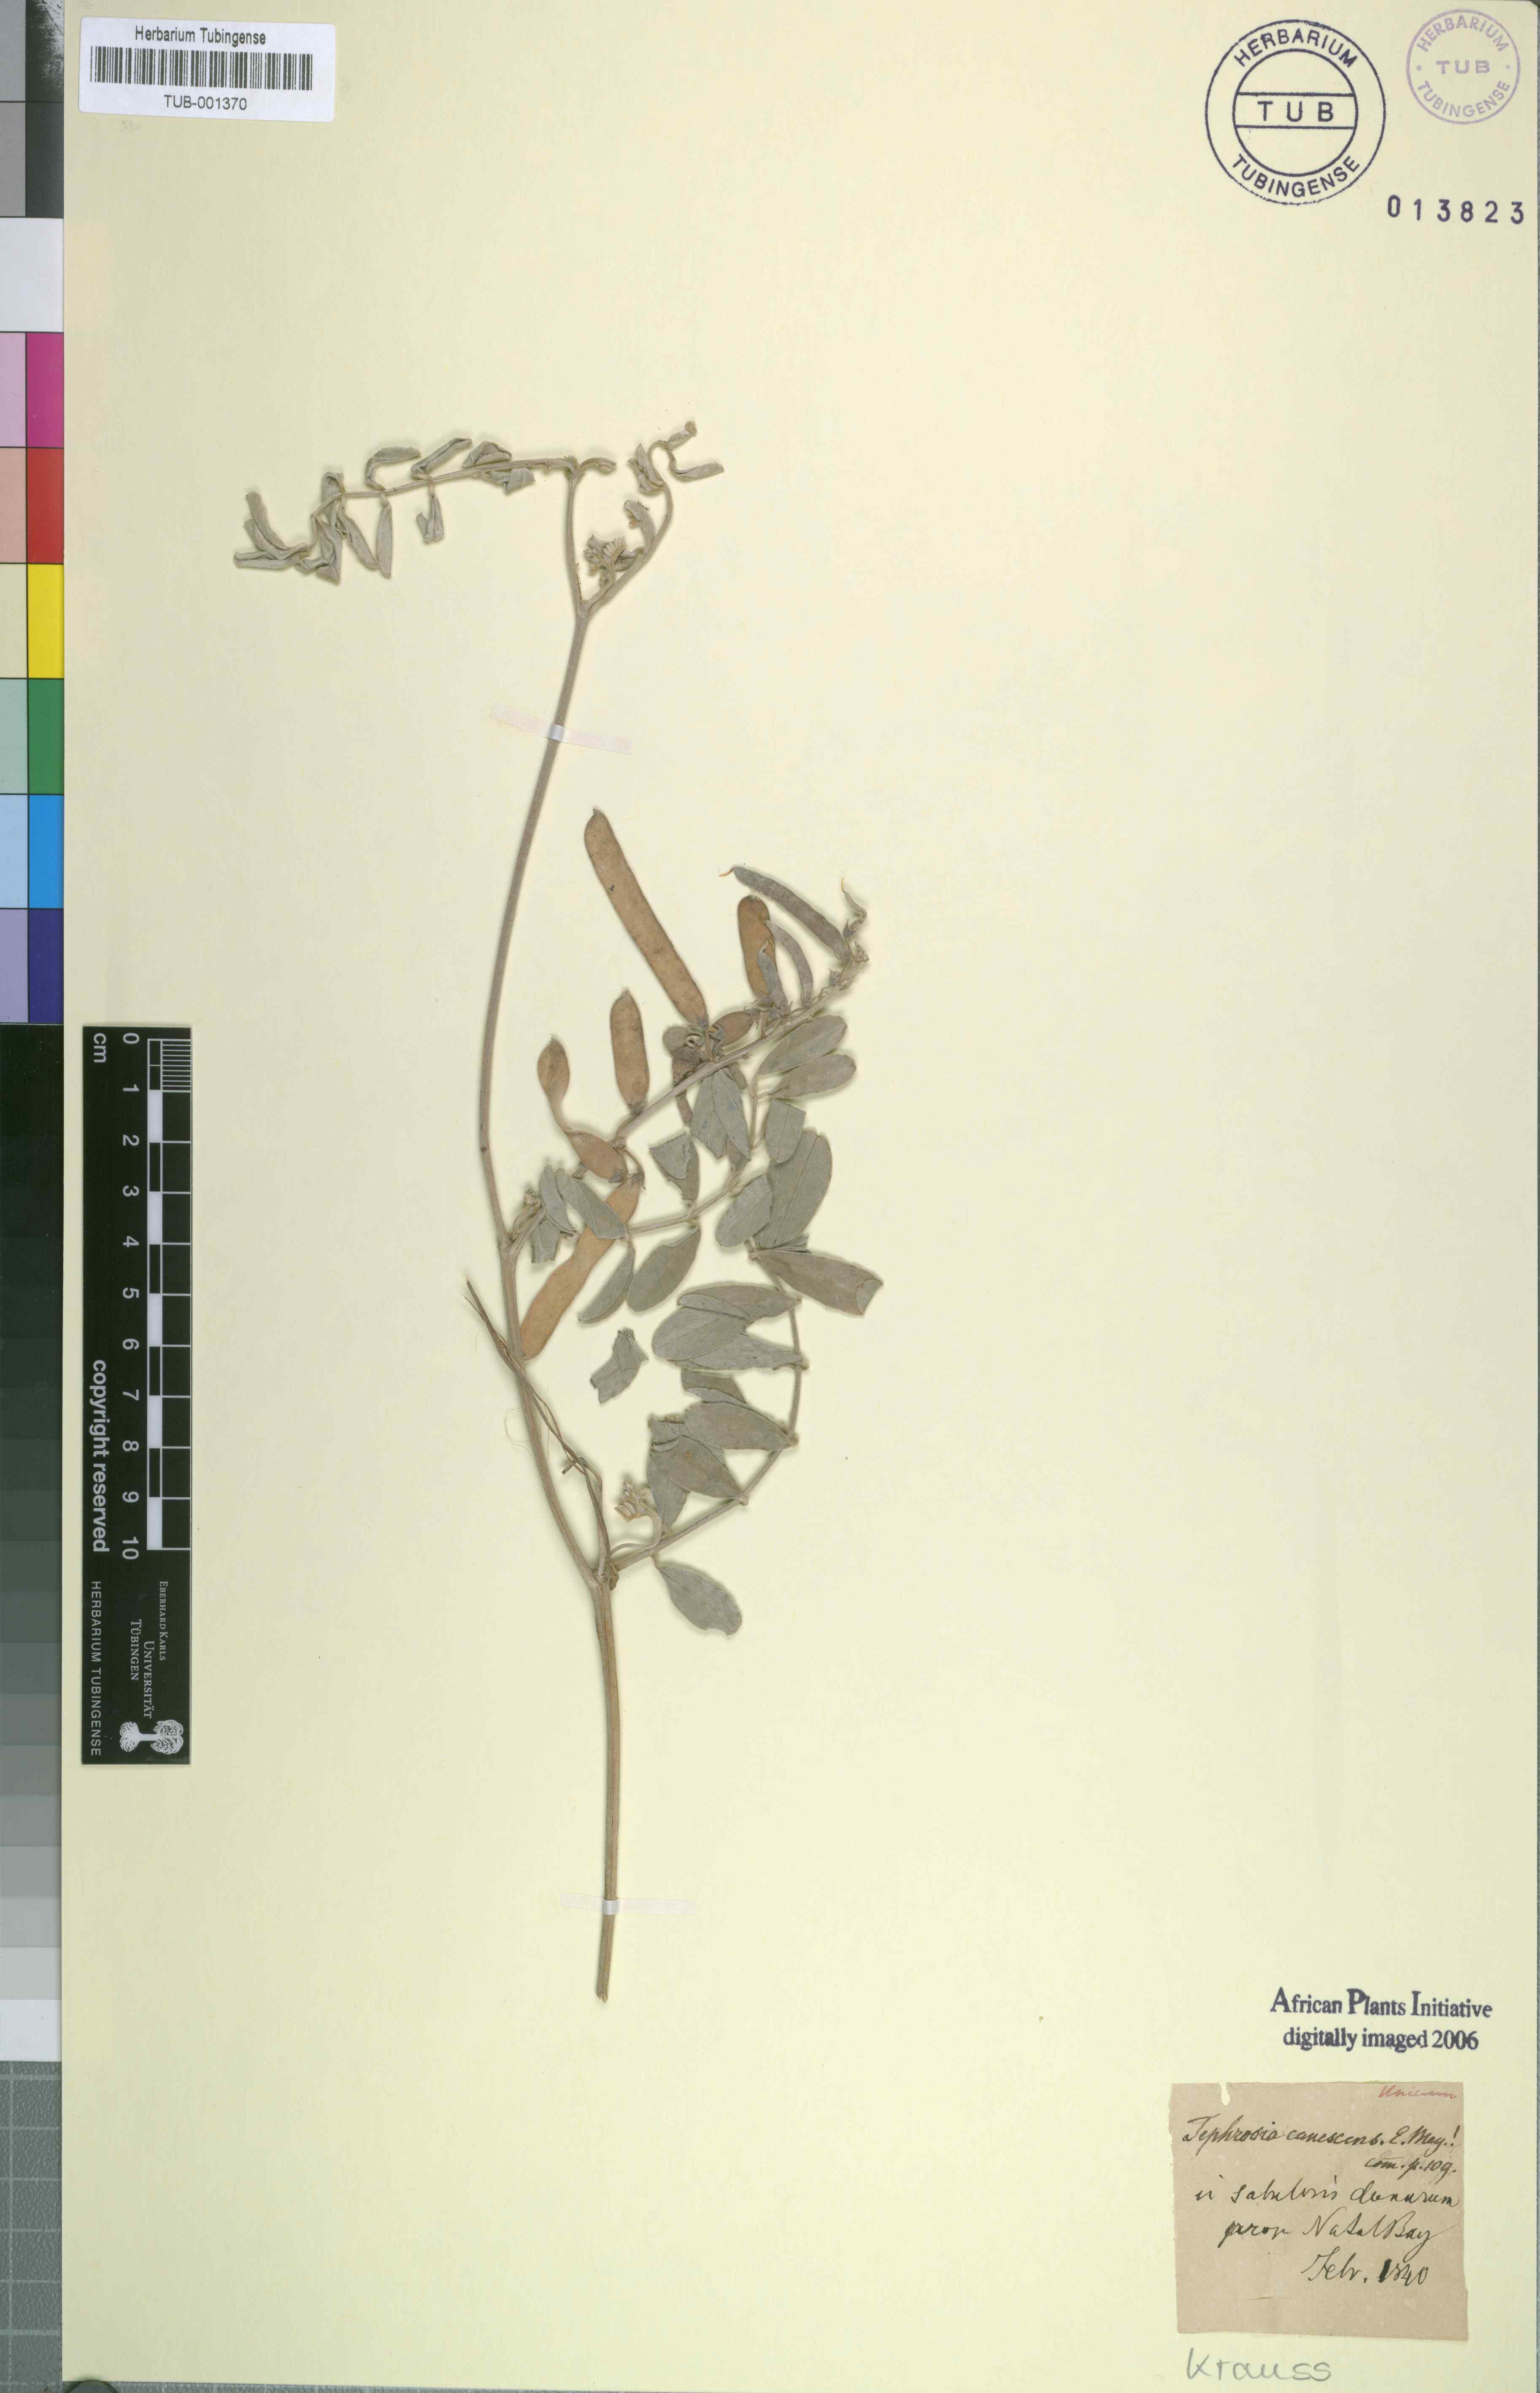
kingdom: Plantae
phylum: Tracheophyta
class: Magnoliopsida
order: Fabales
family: Fabaceae
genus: Tephrosia
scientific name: Tephrosia purpurea
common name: Fishpoison
